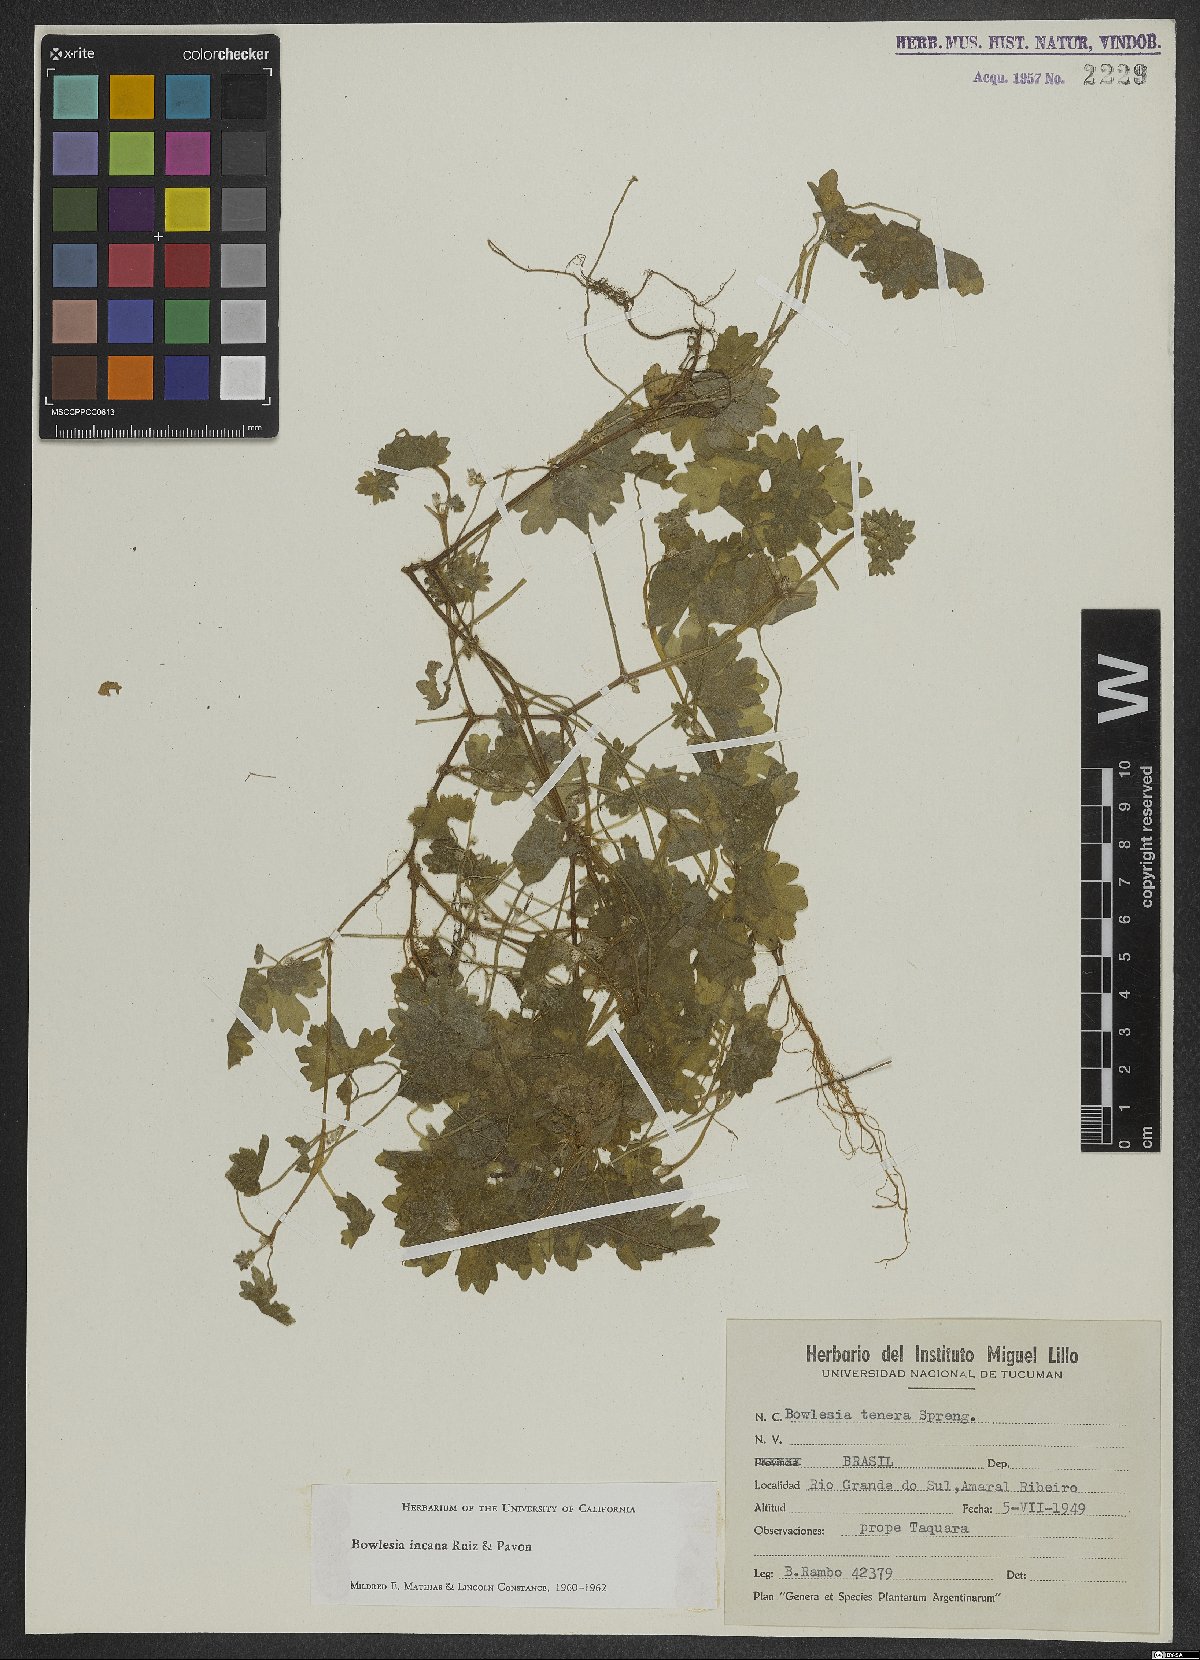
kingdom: Plantae
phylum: Tracheophyta
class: Magnoliopsida
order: Apiales
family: Apiaceae
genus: Bowlesia
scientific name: Bowlesia incana
